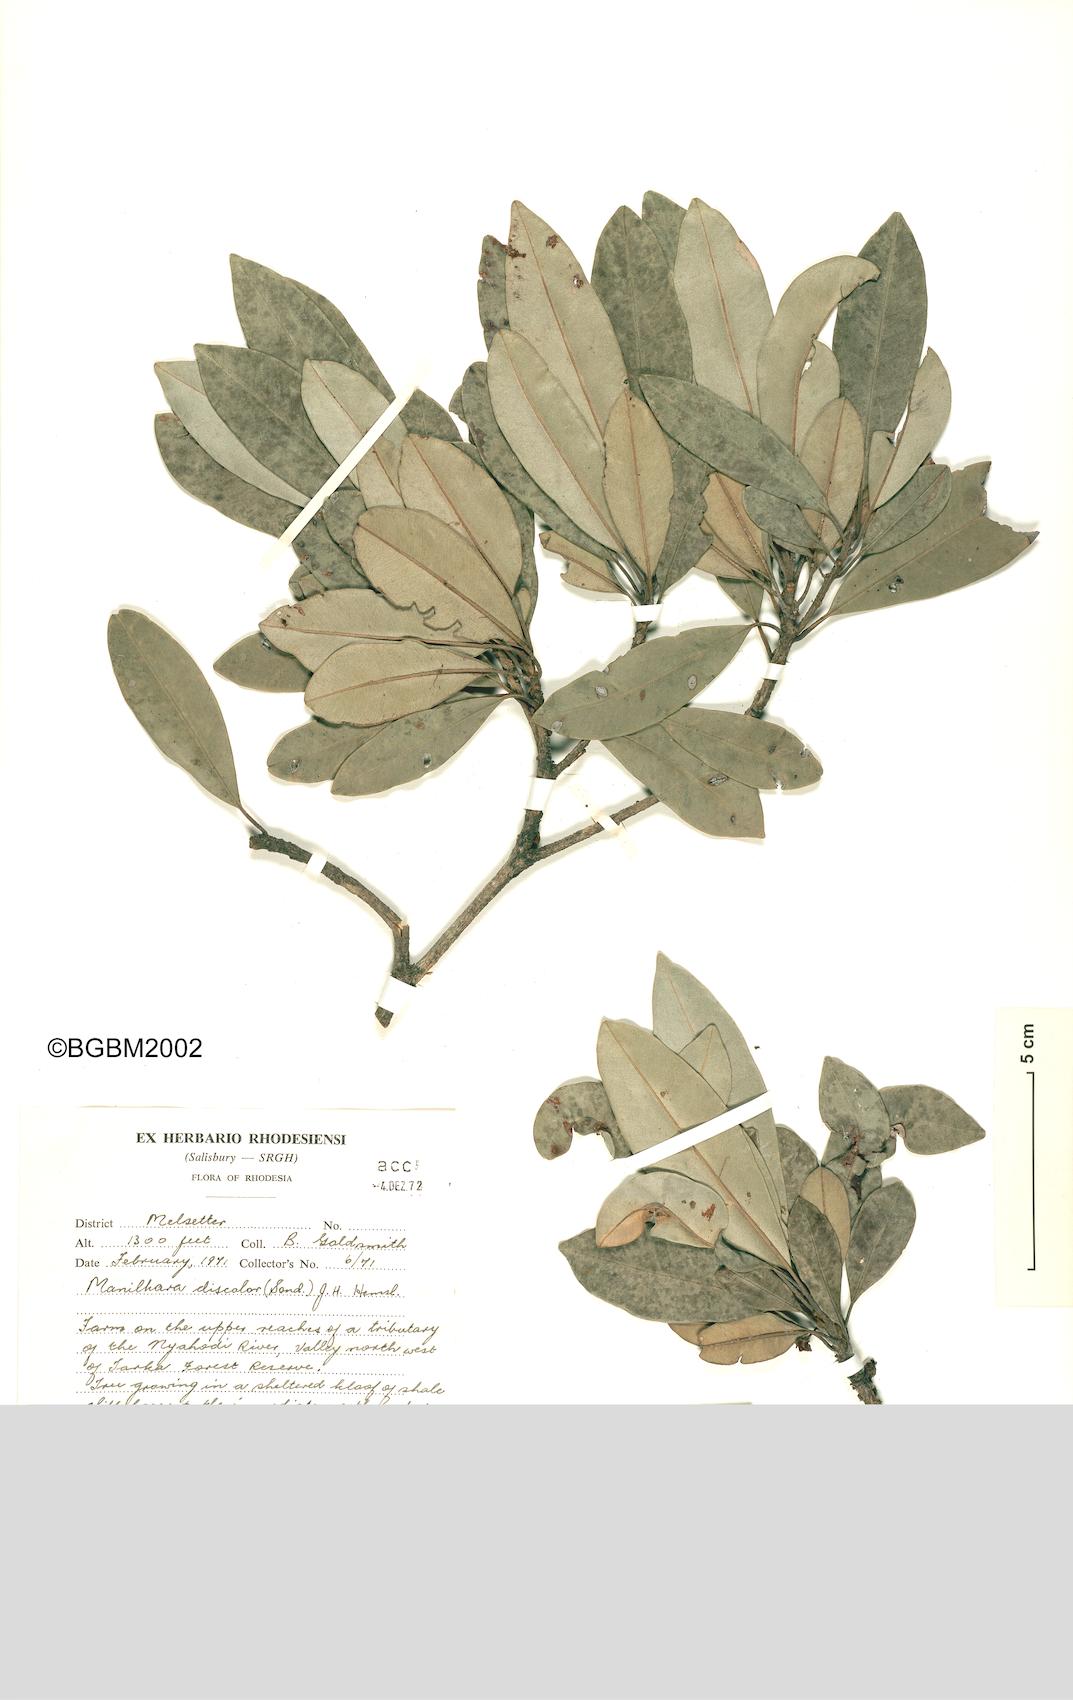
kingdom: Plantae
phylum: Tracheophyta
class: Magnoliopsida
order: Ericales
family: Sapotaceae
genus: Manilkara
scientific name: Manilkara discolor
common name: Forest milkberry
